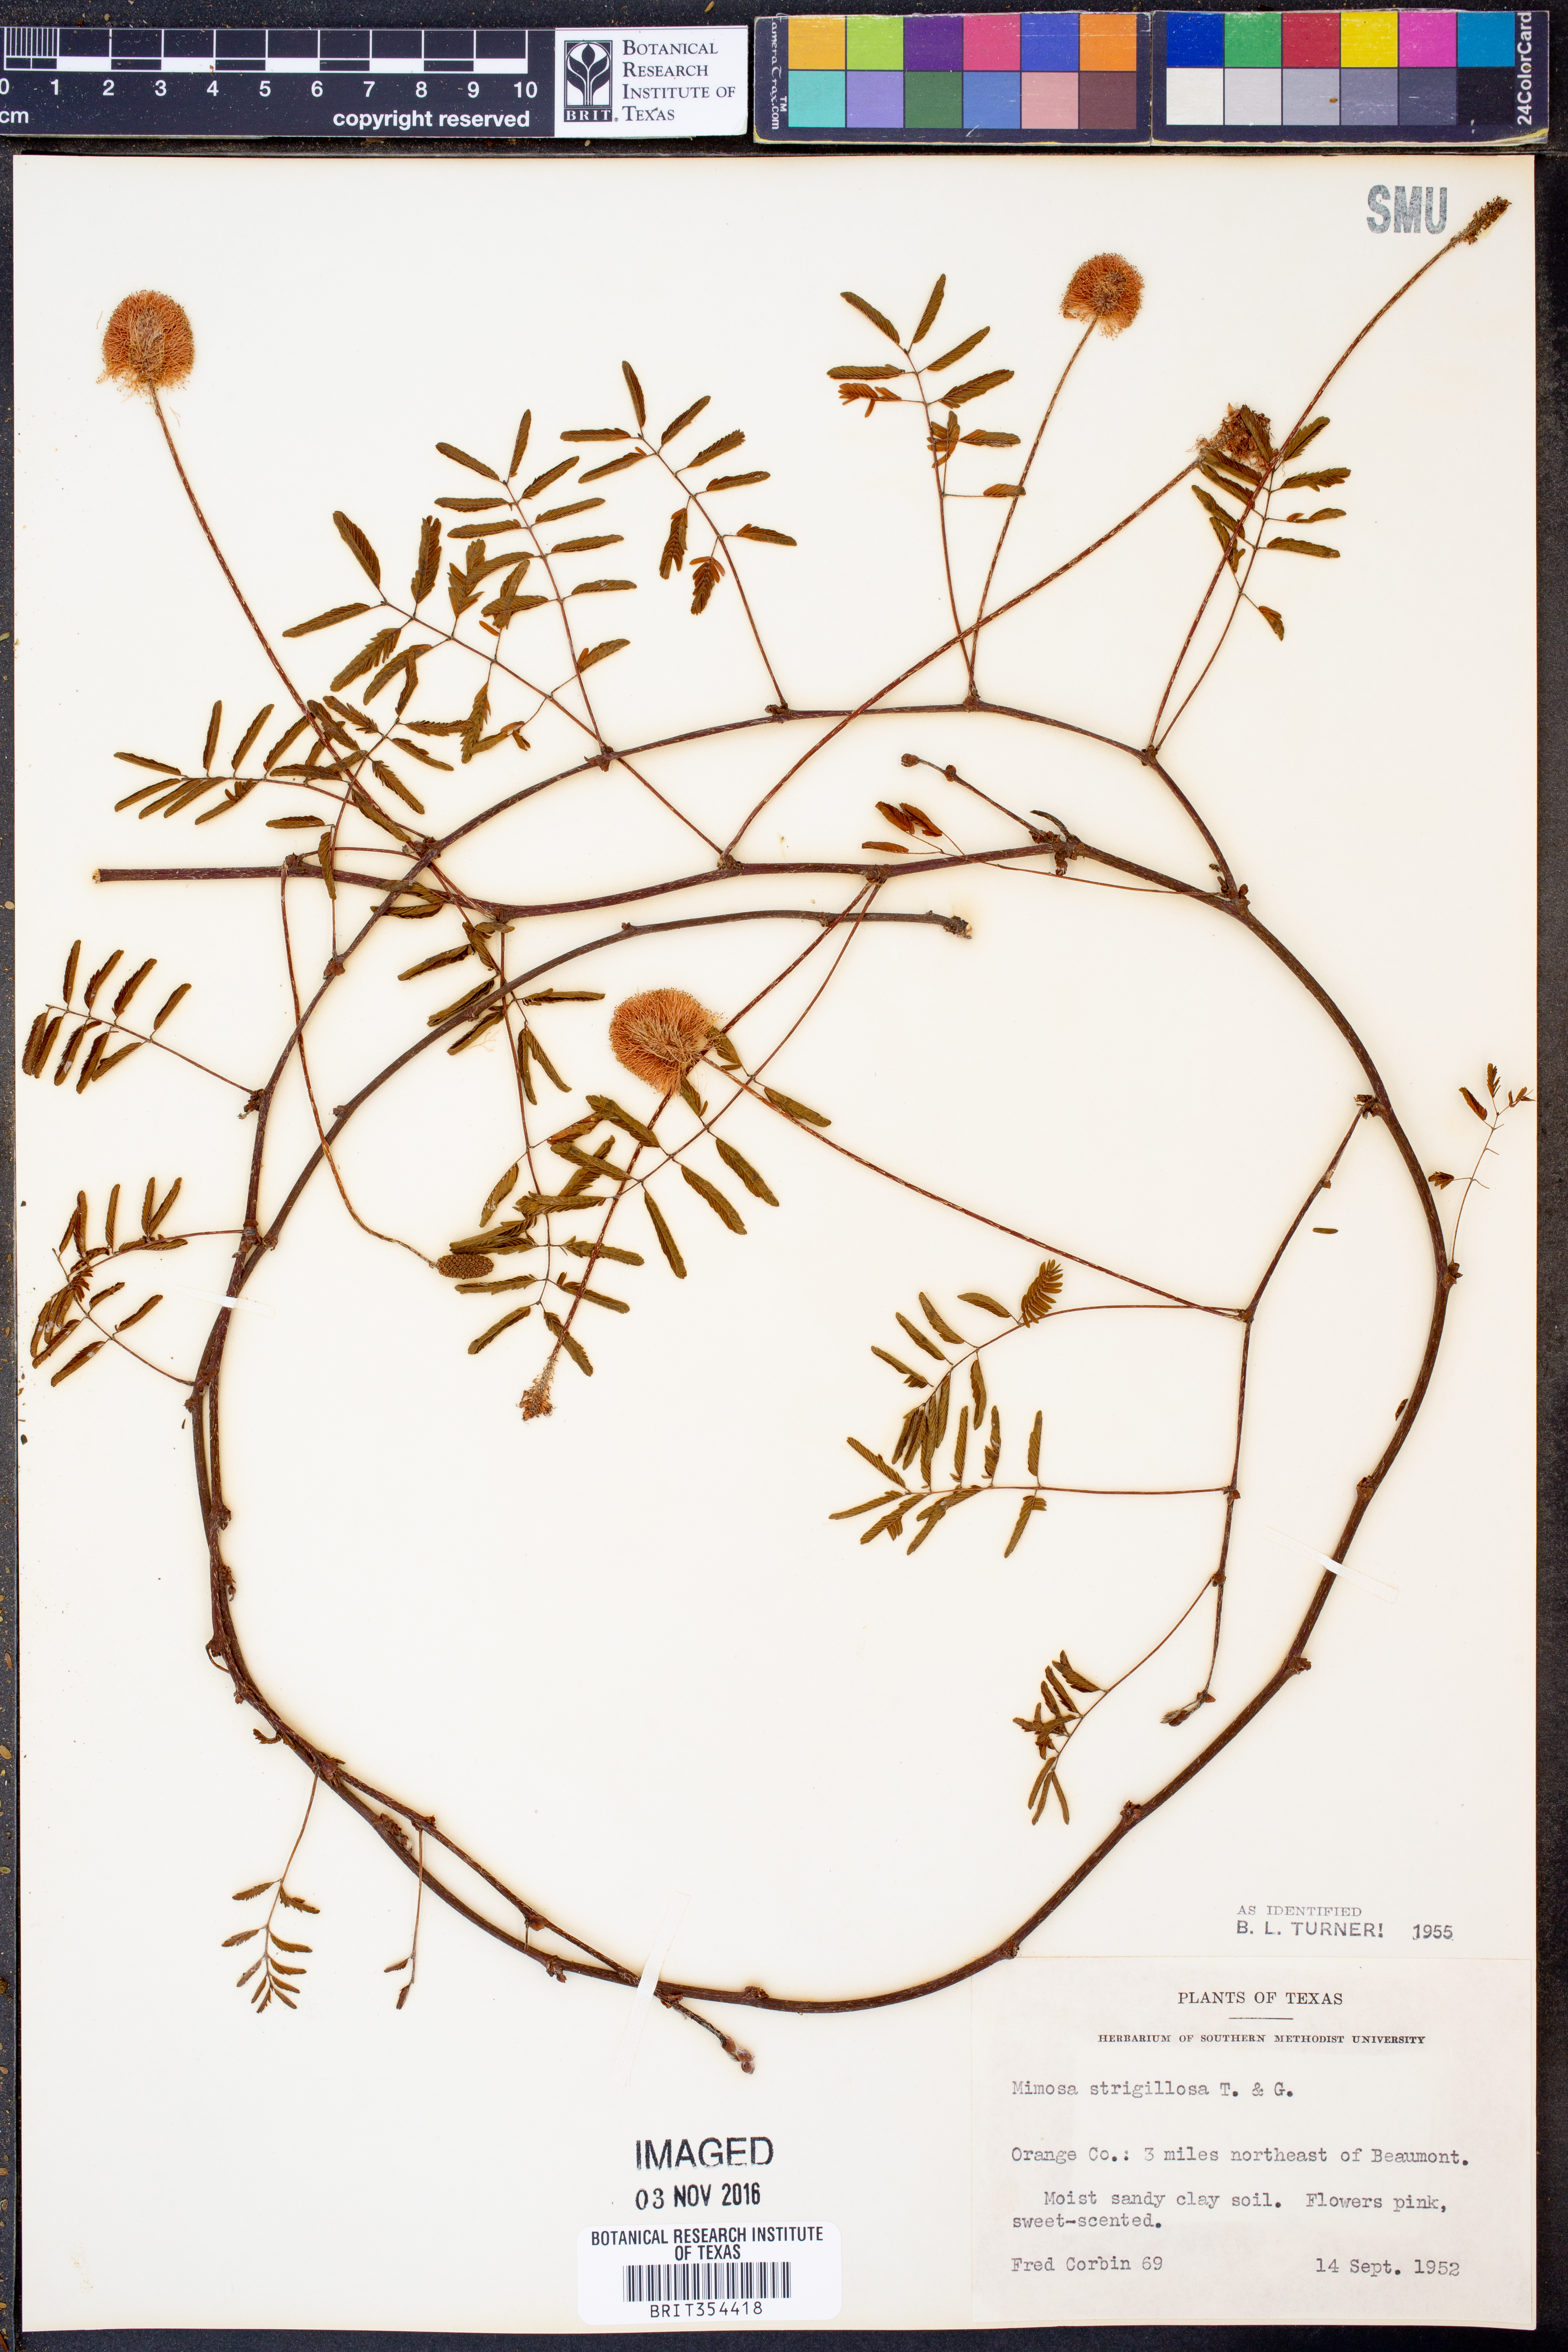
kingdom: Plantae
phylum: Tracheophyta
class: Magnoliopsida
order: Fabales
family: Fabaceae
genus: Mimosa
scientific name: Mimosa strigillosa
